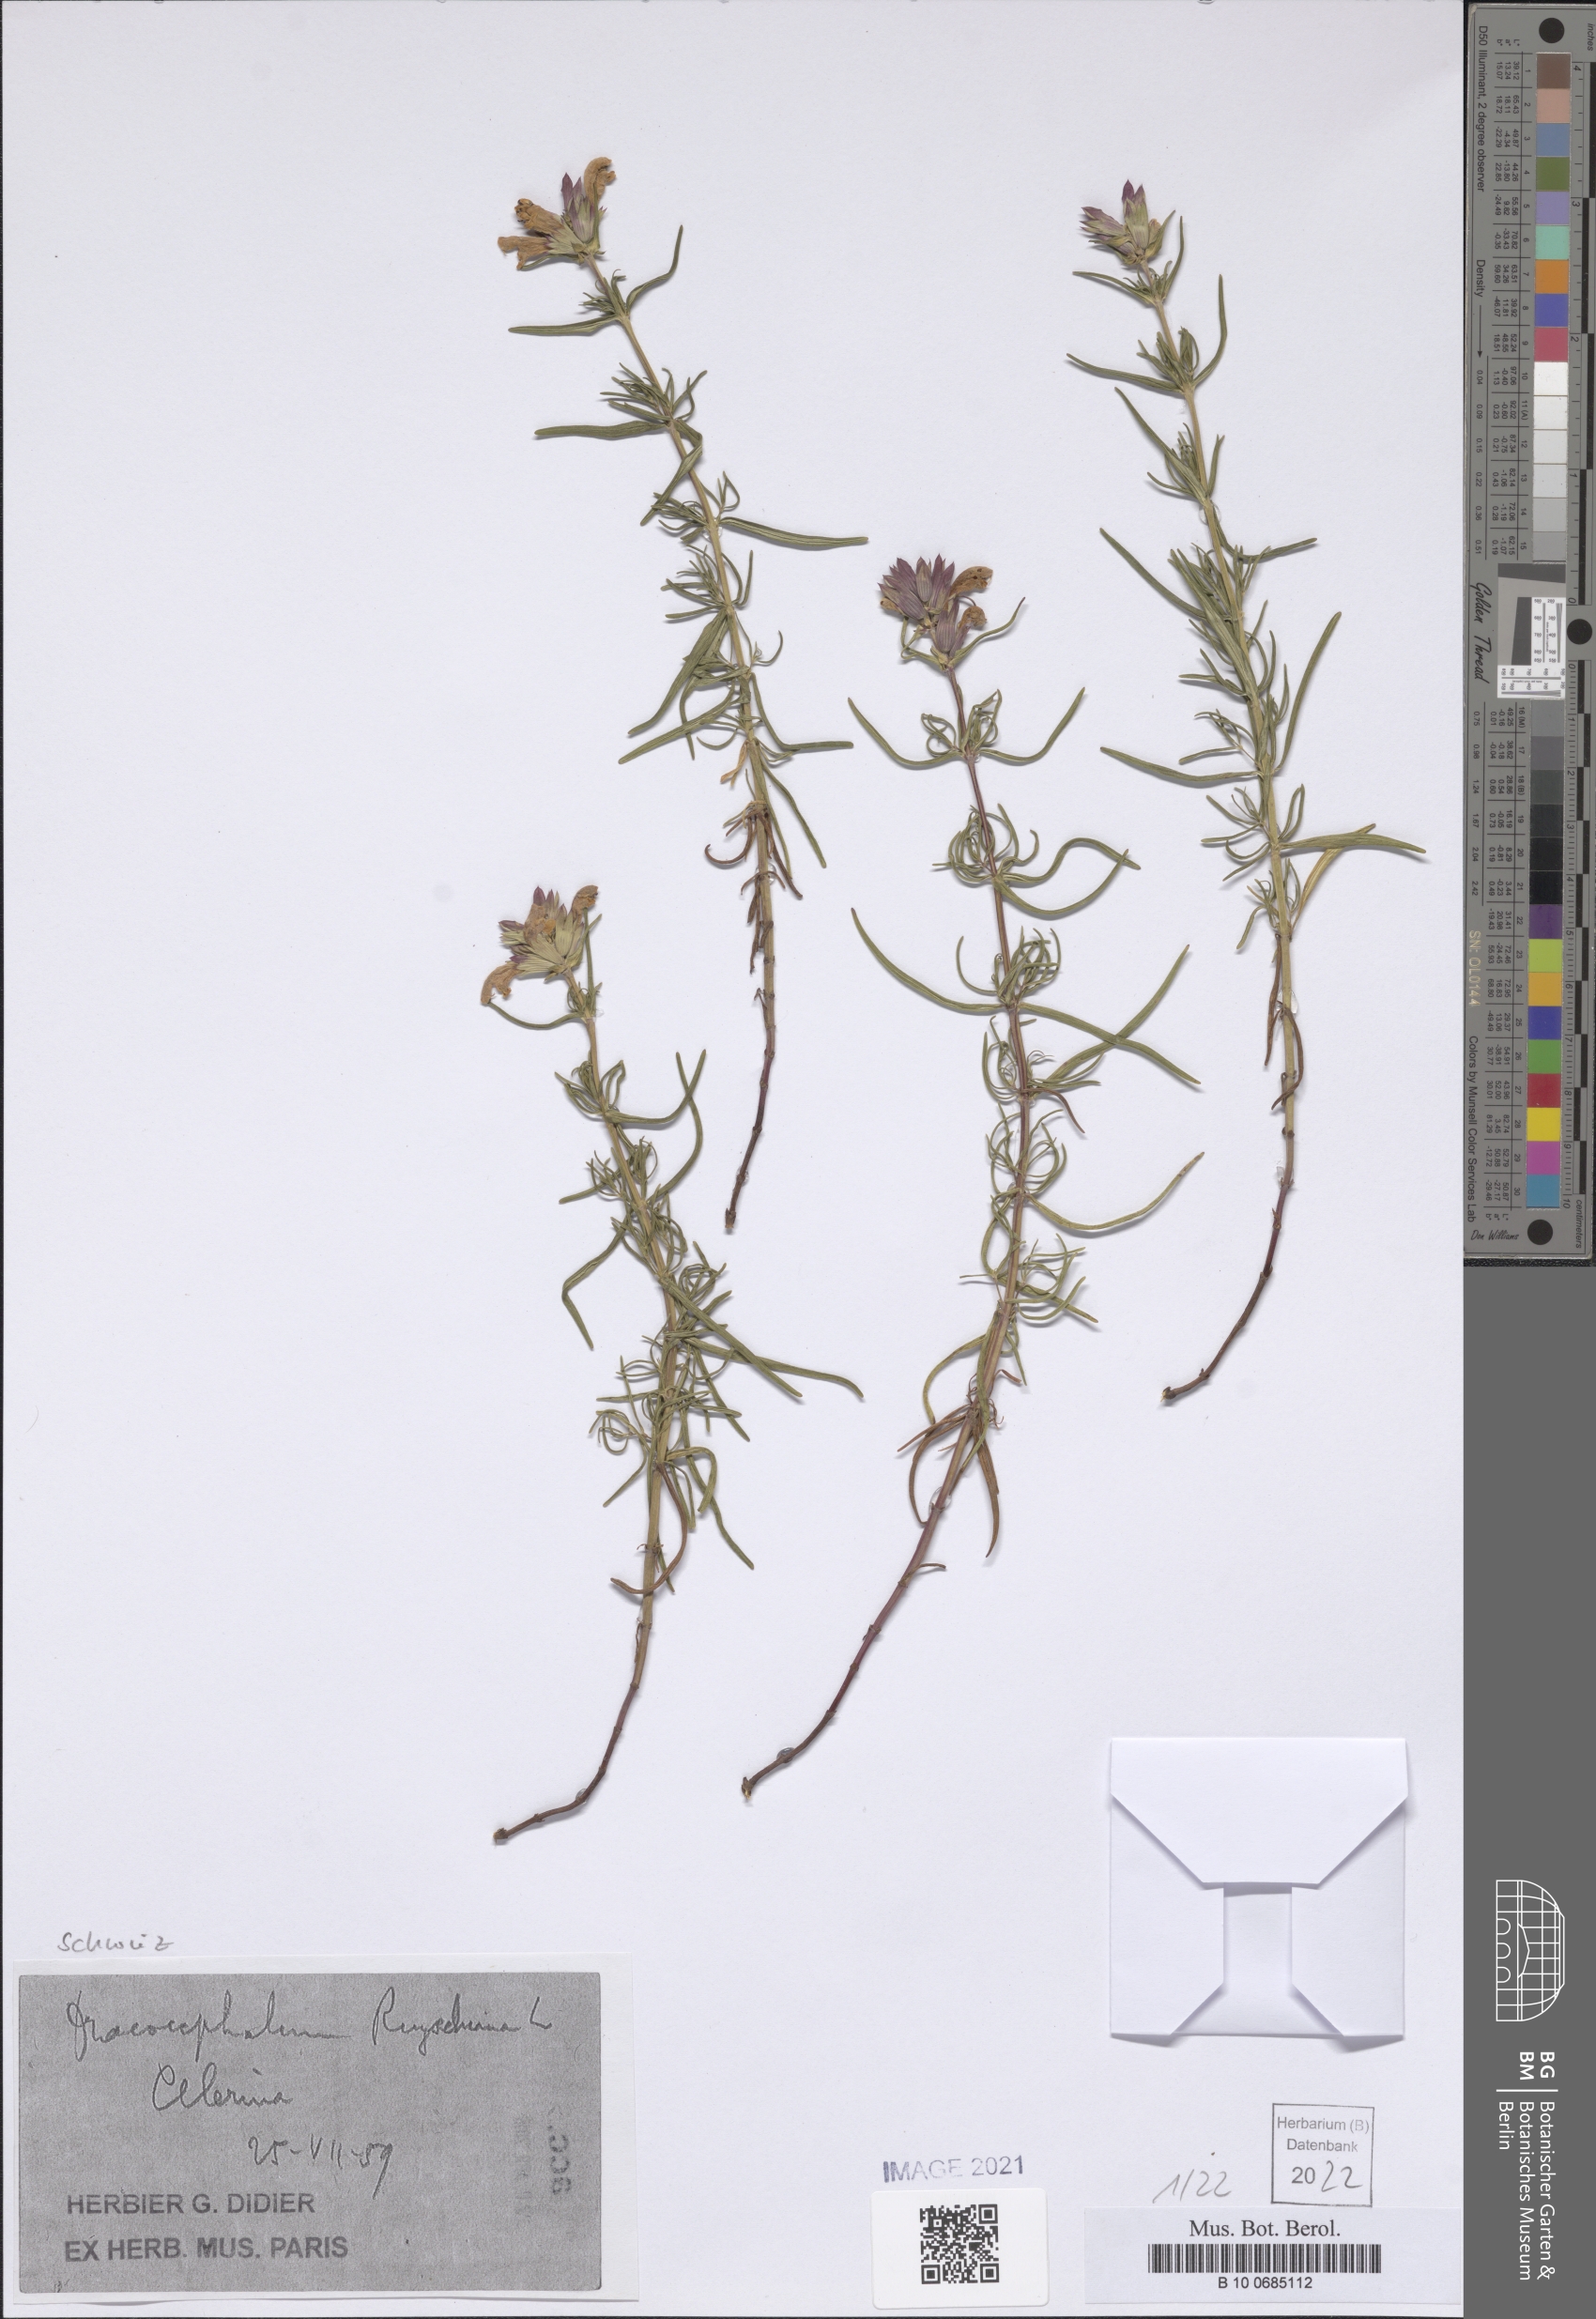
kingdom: Plantae
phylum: Tracheophyta
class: Magnoliopsida
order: Lamiales
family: Lamiaceae
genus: Dracocephalum
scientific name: Dracocephalum ruyschiana
